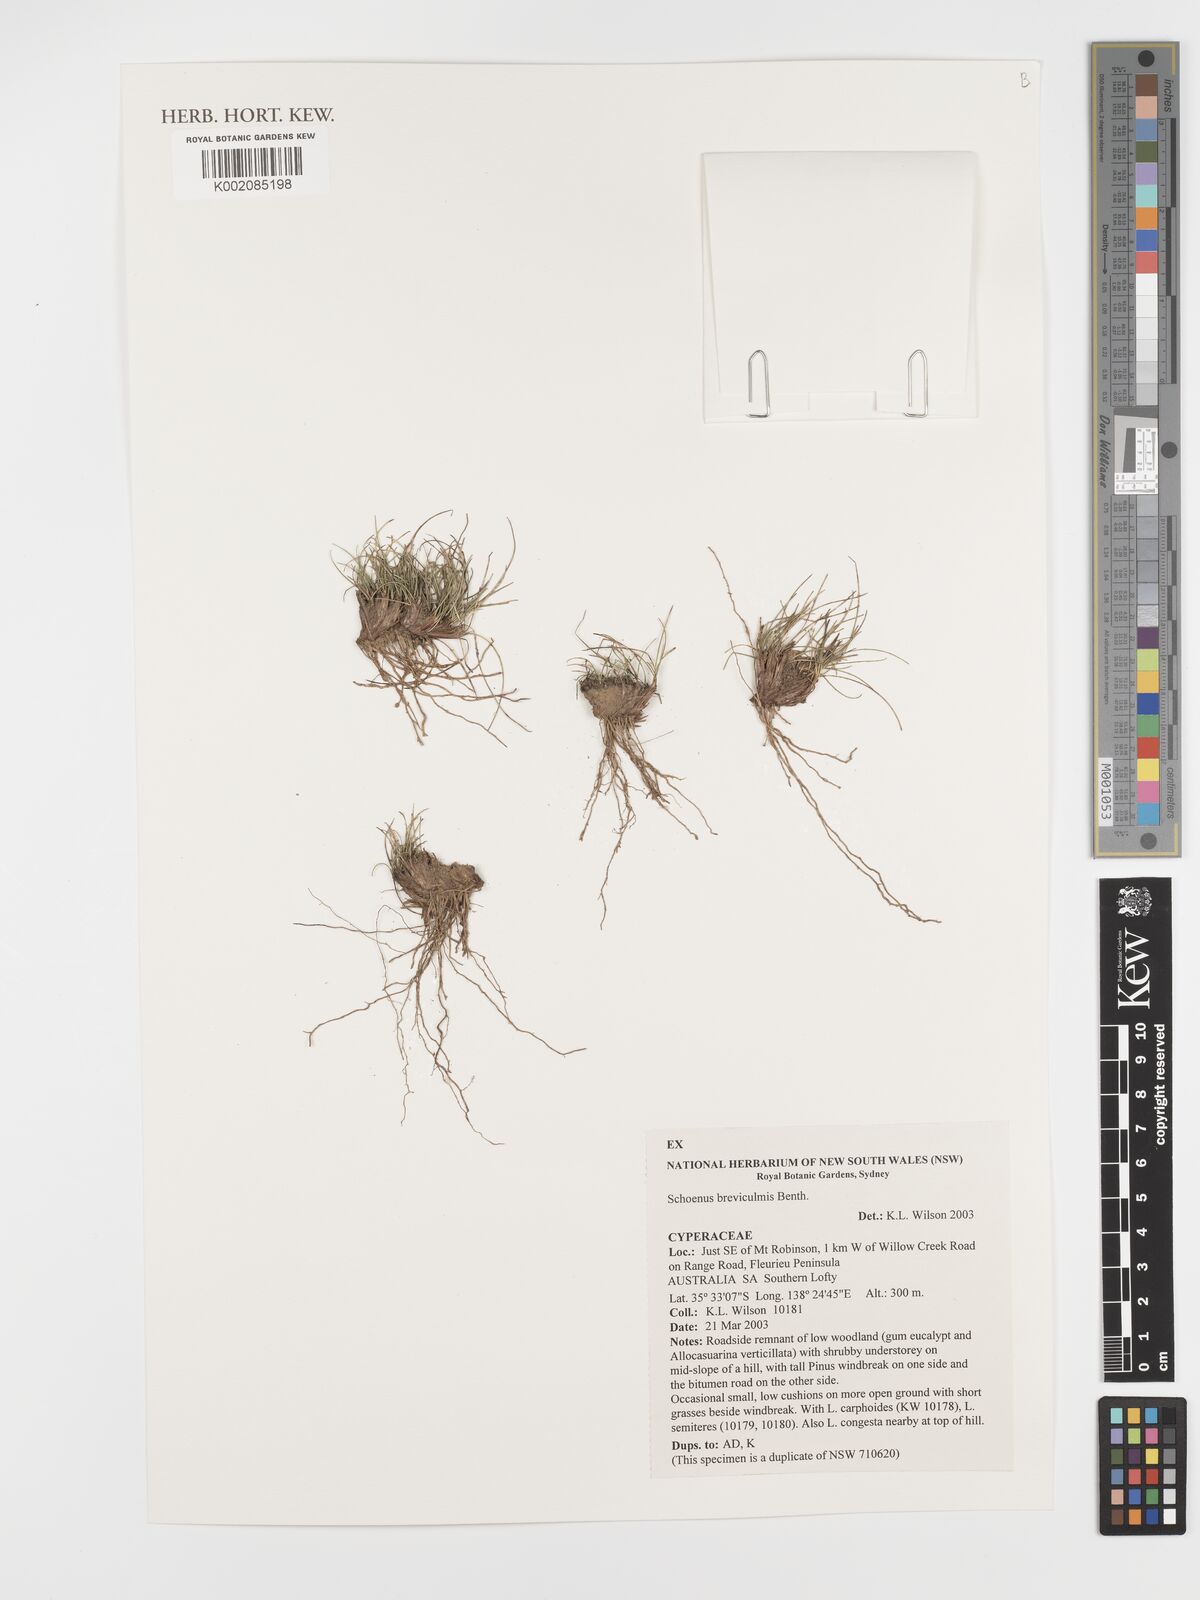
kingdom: Plantae
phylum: Tracheophyta
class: Liliopsida
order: Poales
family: Cyperaceae
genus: Schoenus
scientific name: Schoenus breviculmis
